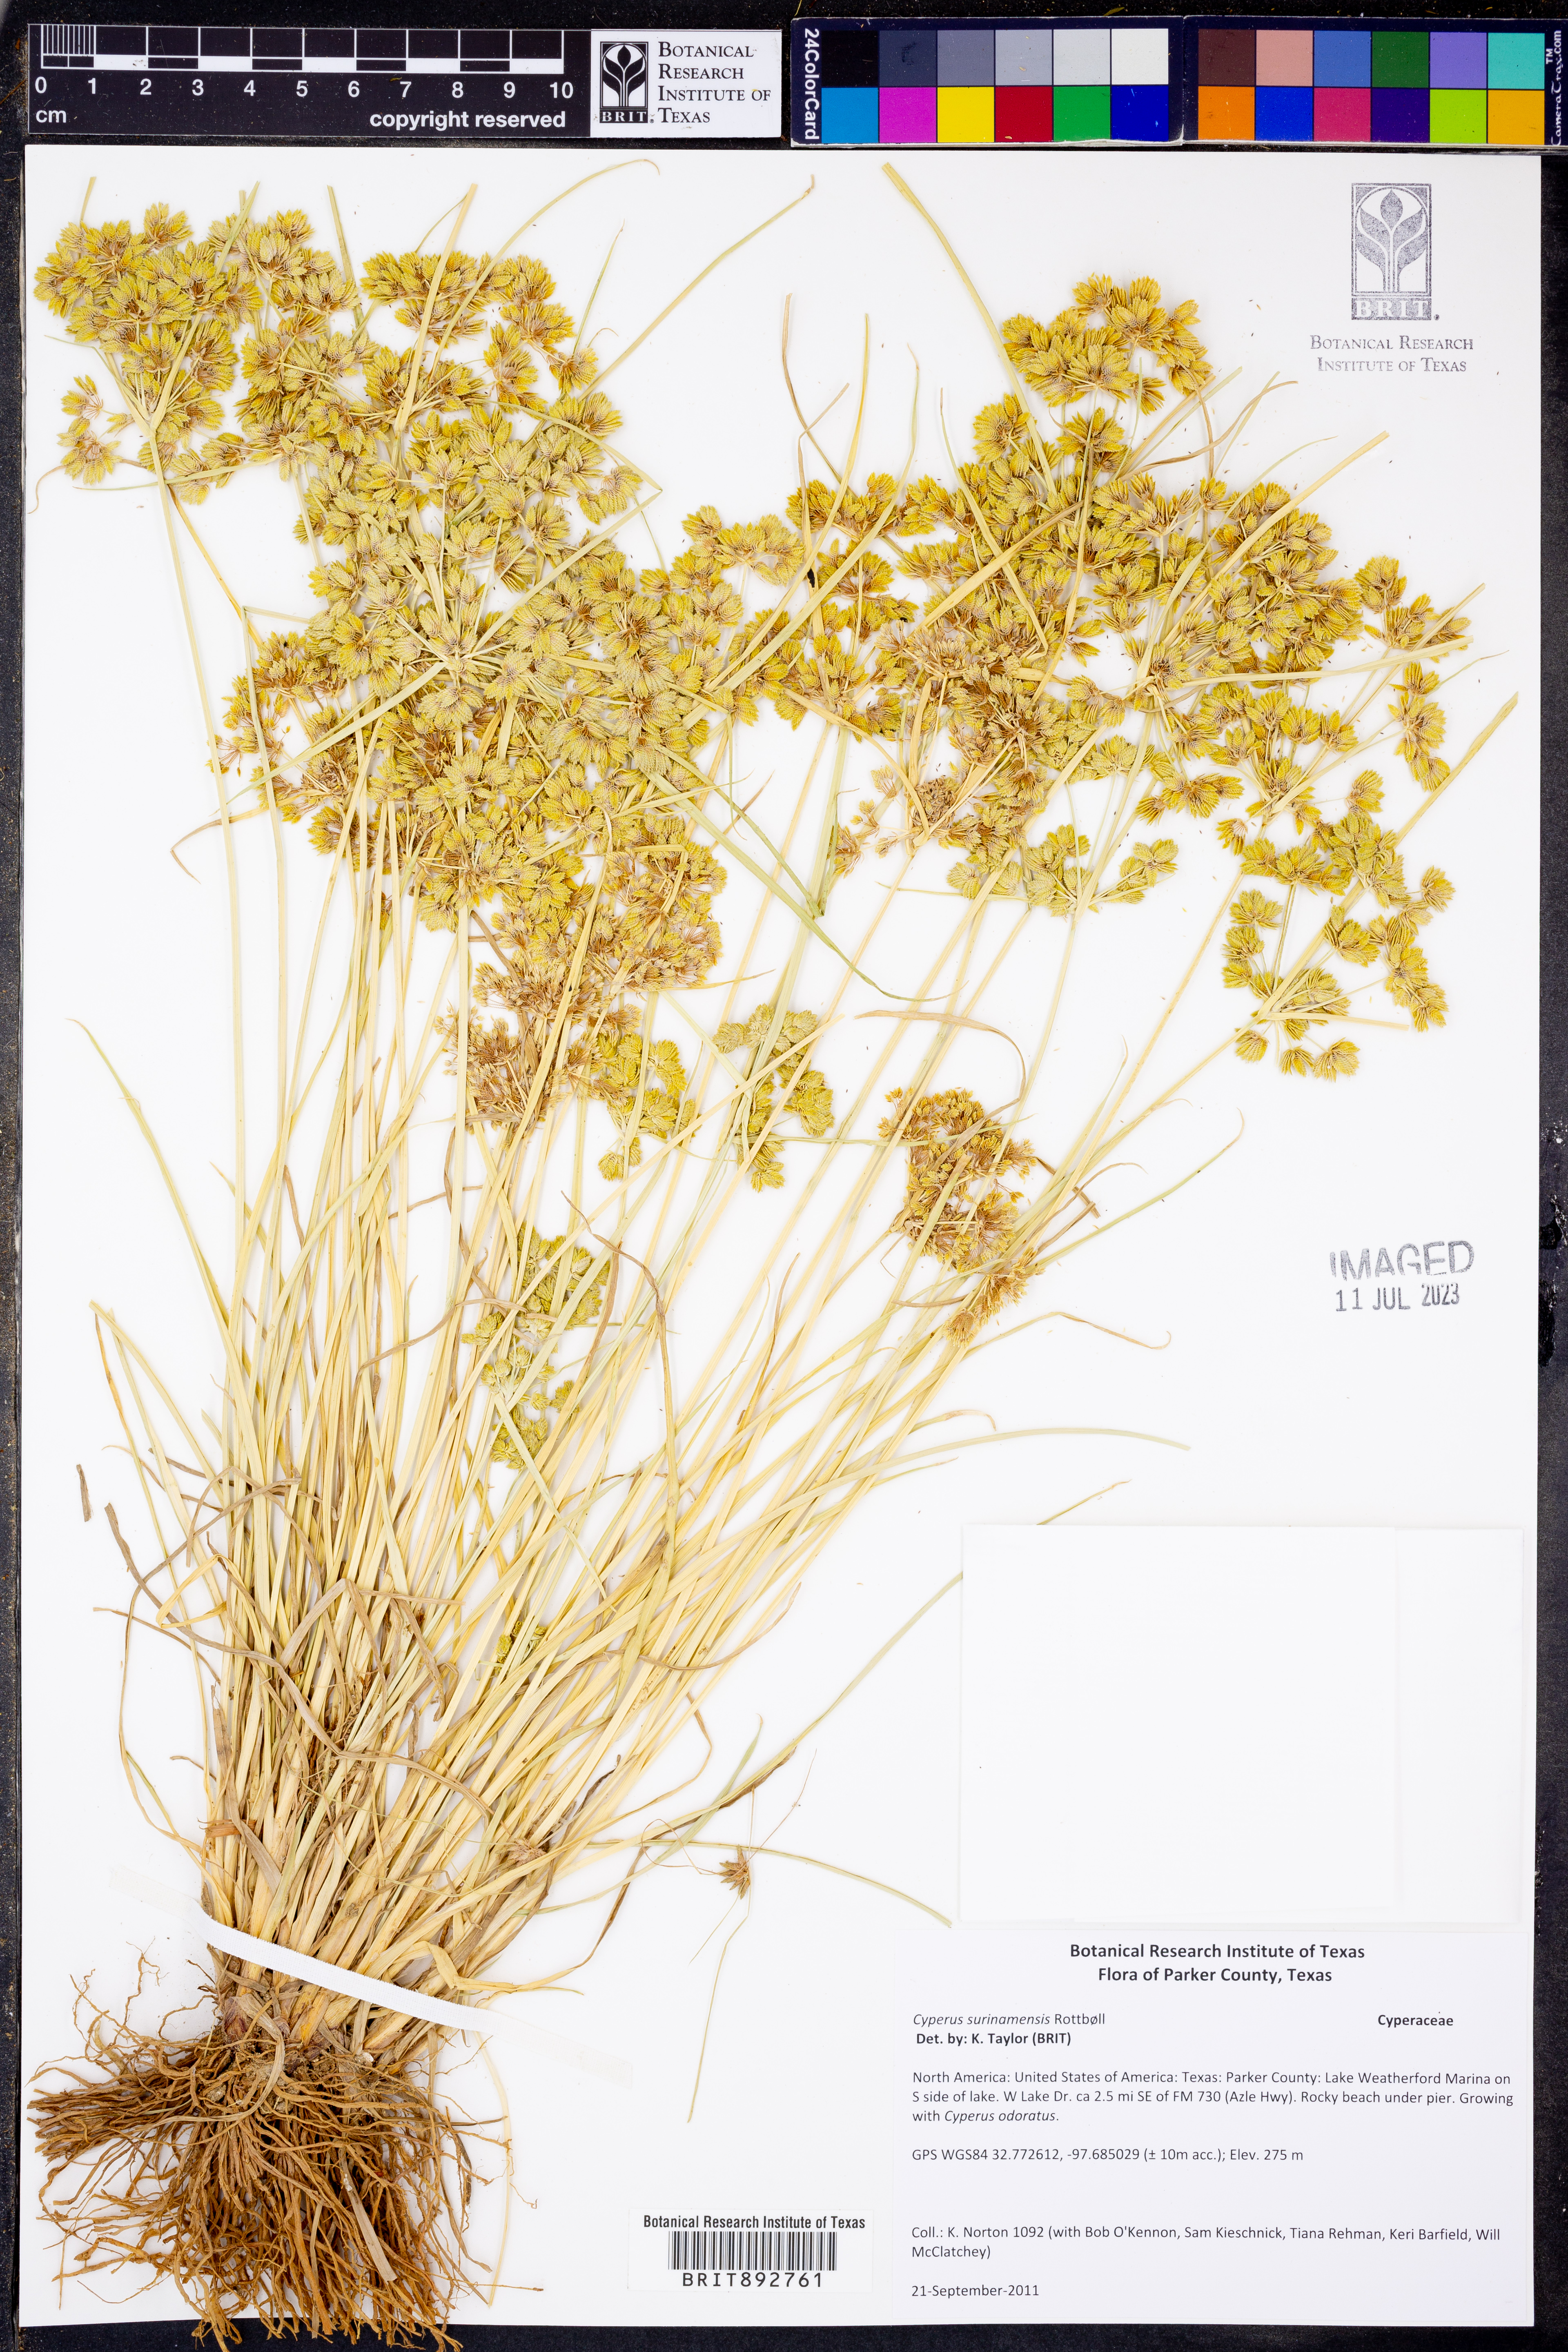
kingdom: Plantae
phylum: Tracheophyta
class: Liliopsida
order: Poales
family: Cyperaceae
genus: Cyperus
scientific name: Cyperus surinamensis
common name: Tropical flat sedge
